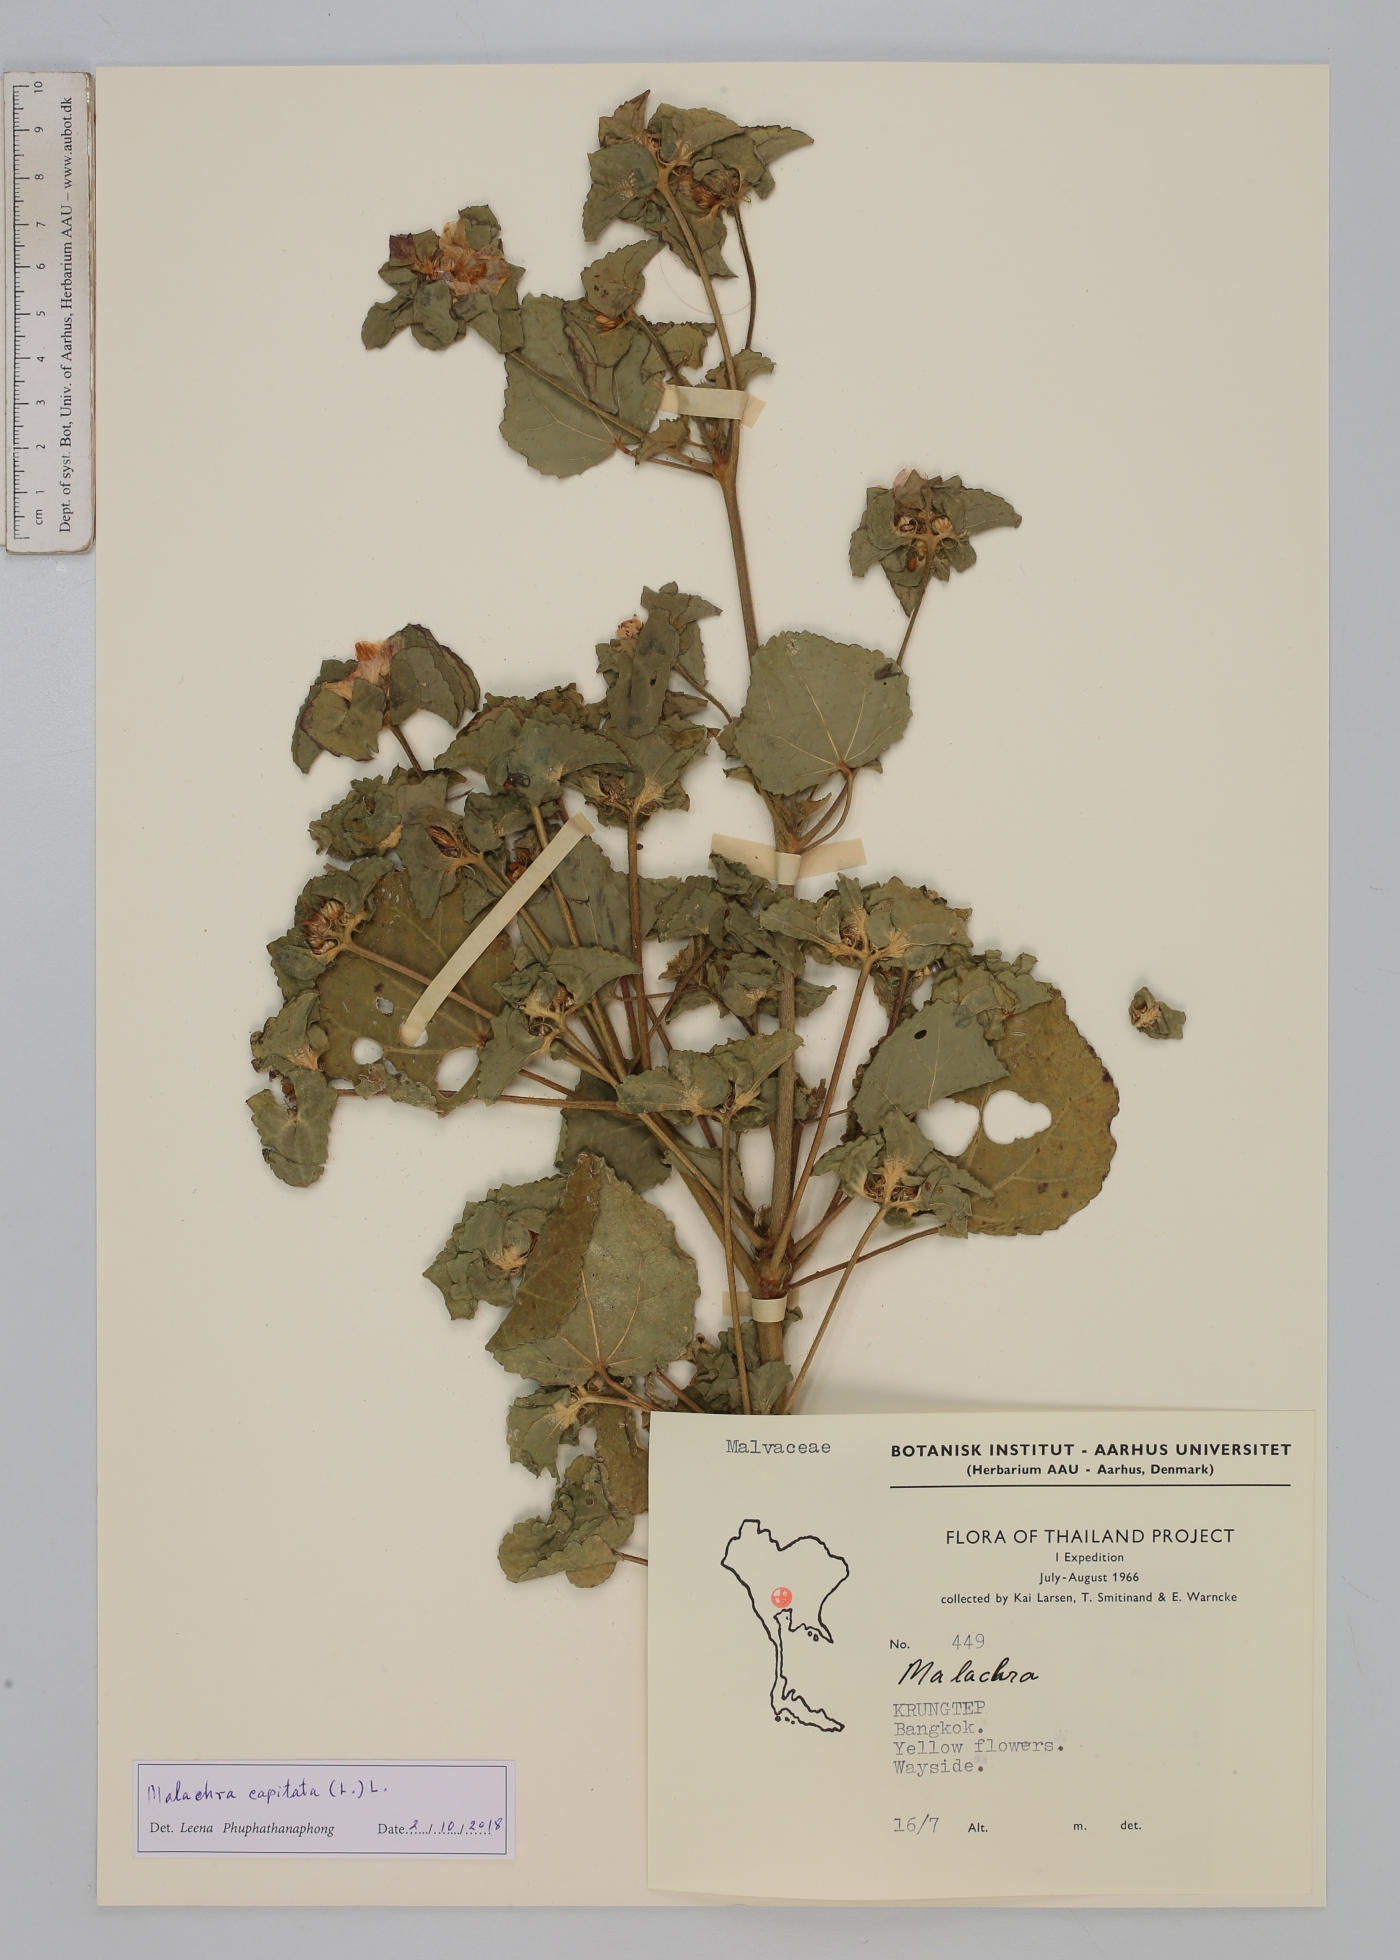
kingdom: Plantae
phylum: Tracheophyta
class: Magnoliopsida
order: Malvales
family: Malvaceae
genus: Malachra
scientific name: Malachra capitata
